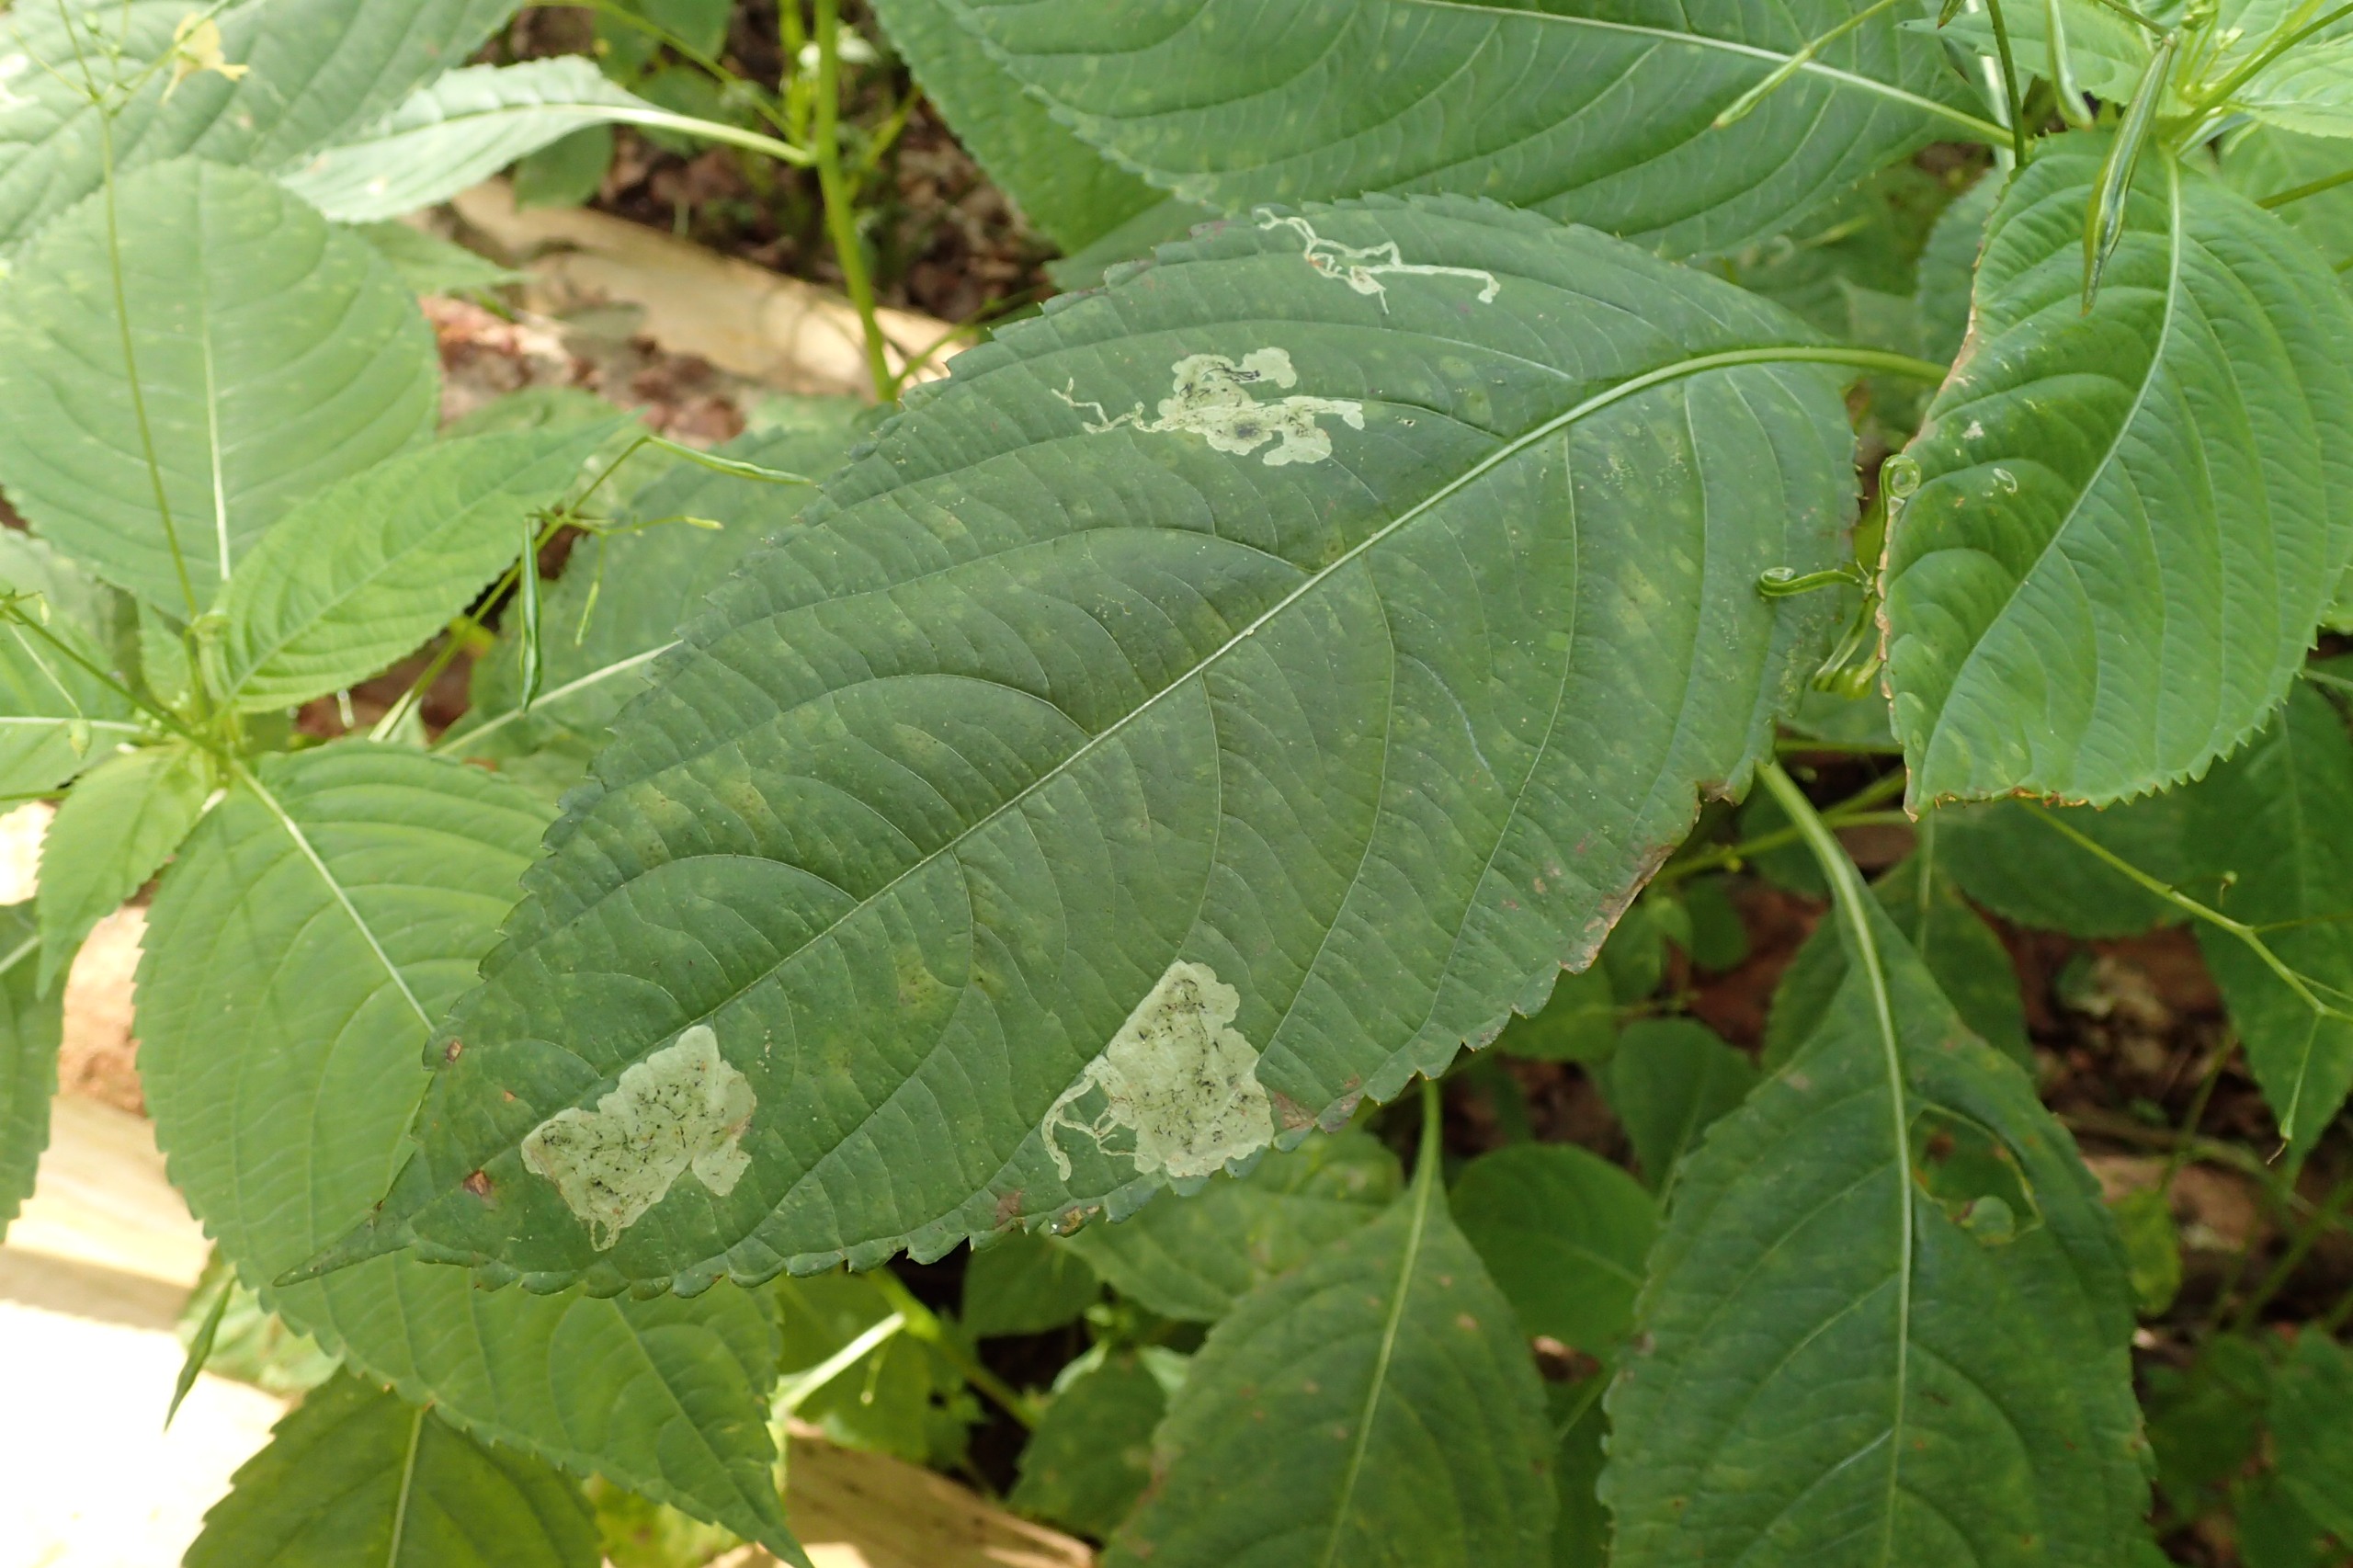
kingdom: Animalia
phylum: Arthropoda
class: Insecta
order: Diptera
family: Agromyzidae
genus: Phytoliriomyza
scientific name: Phytoliriomyza melampyga
